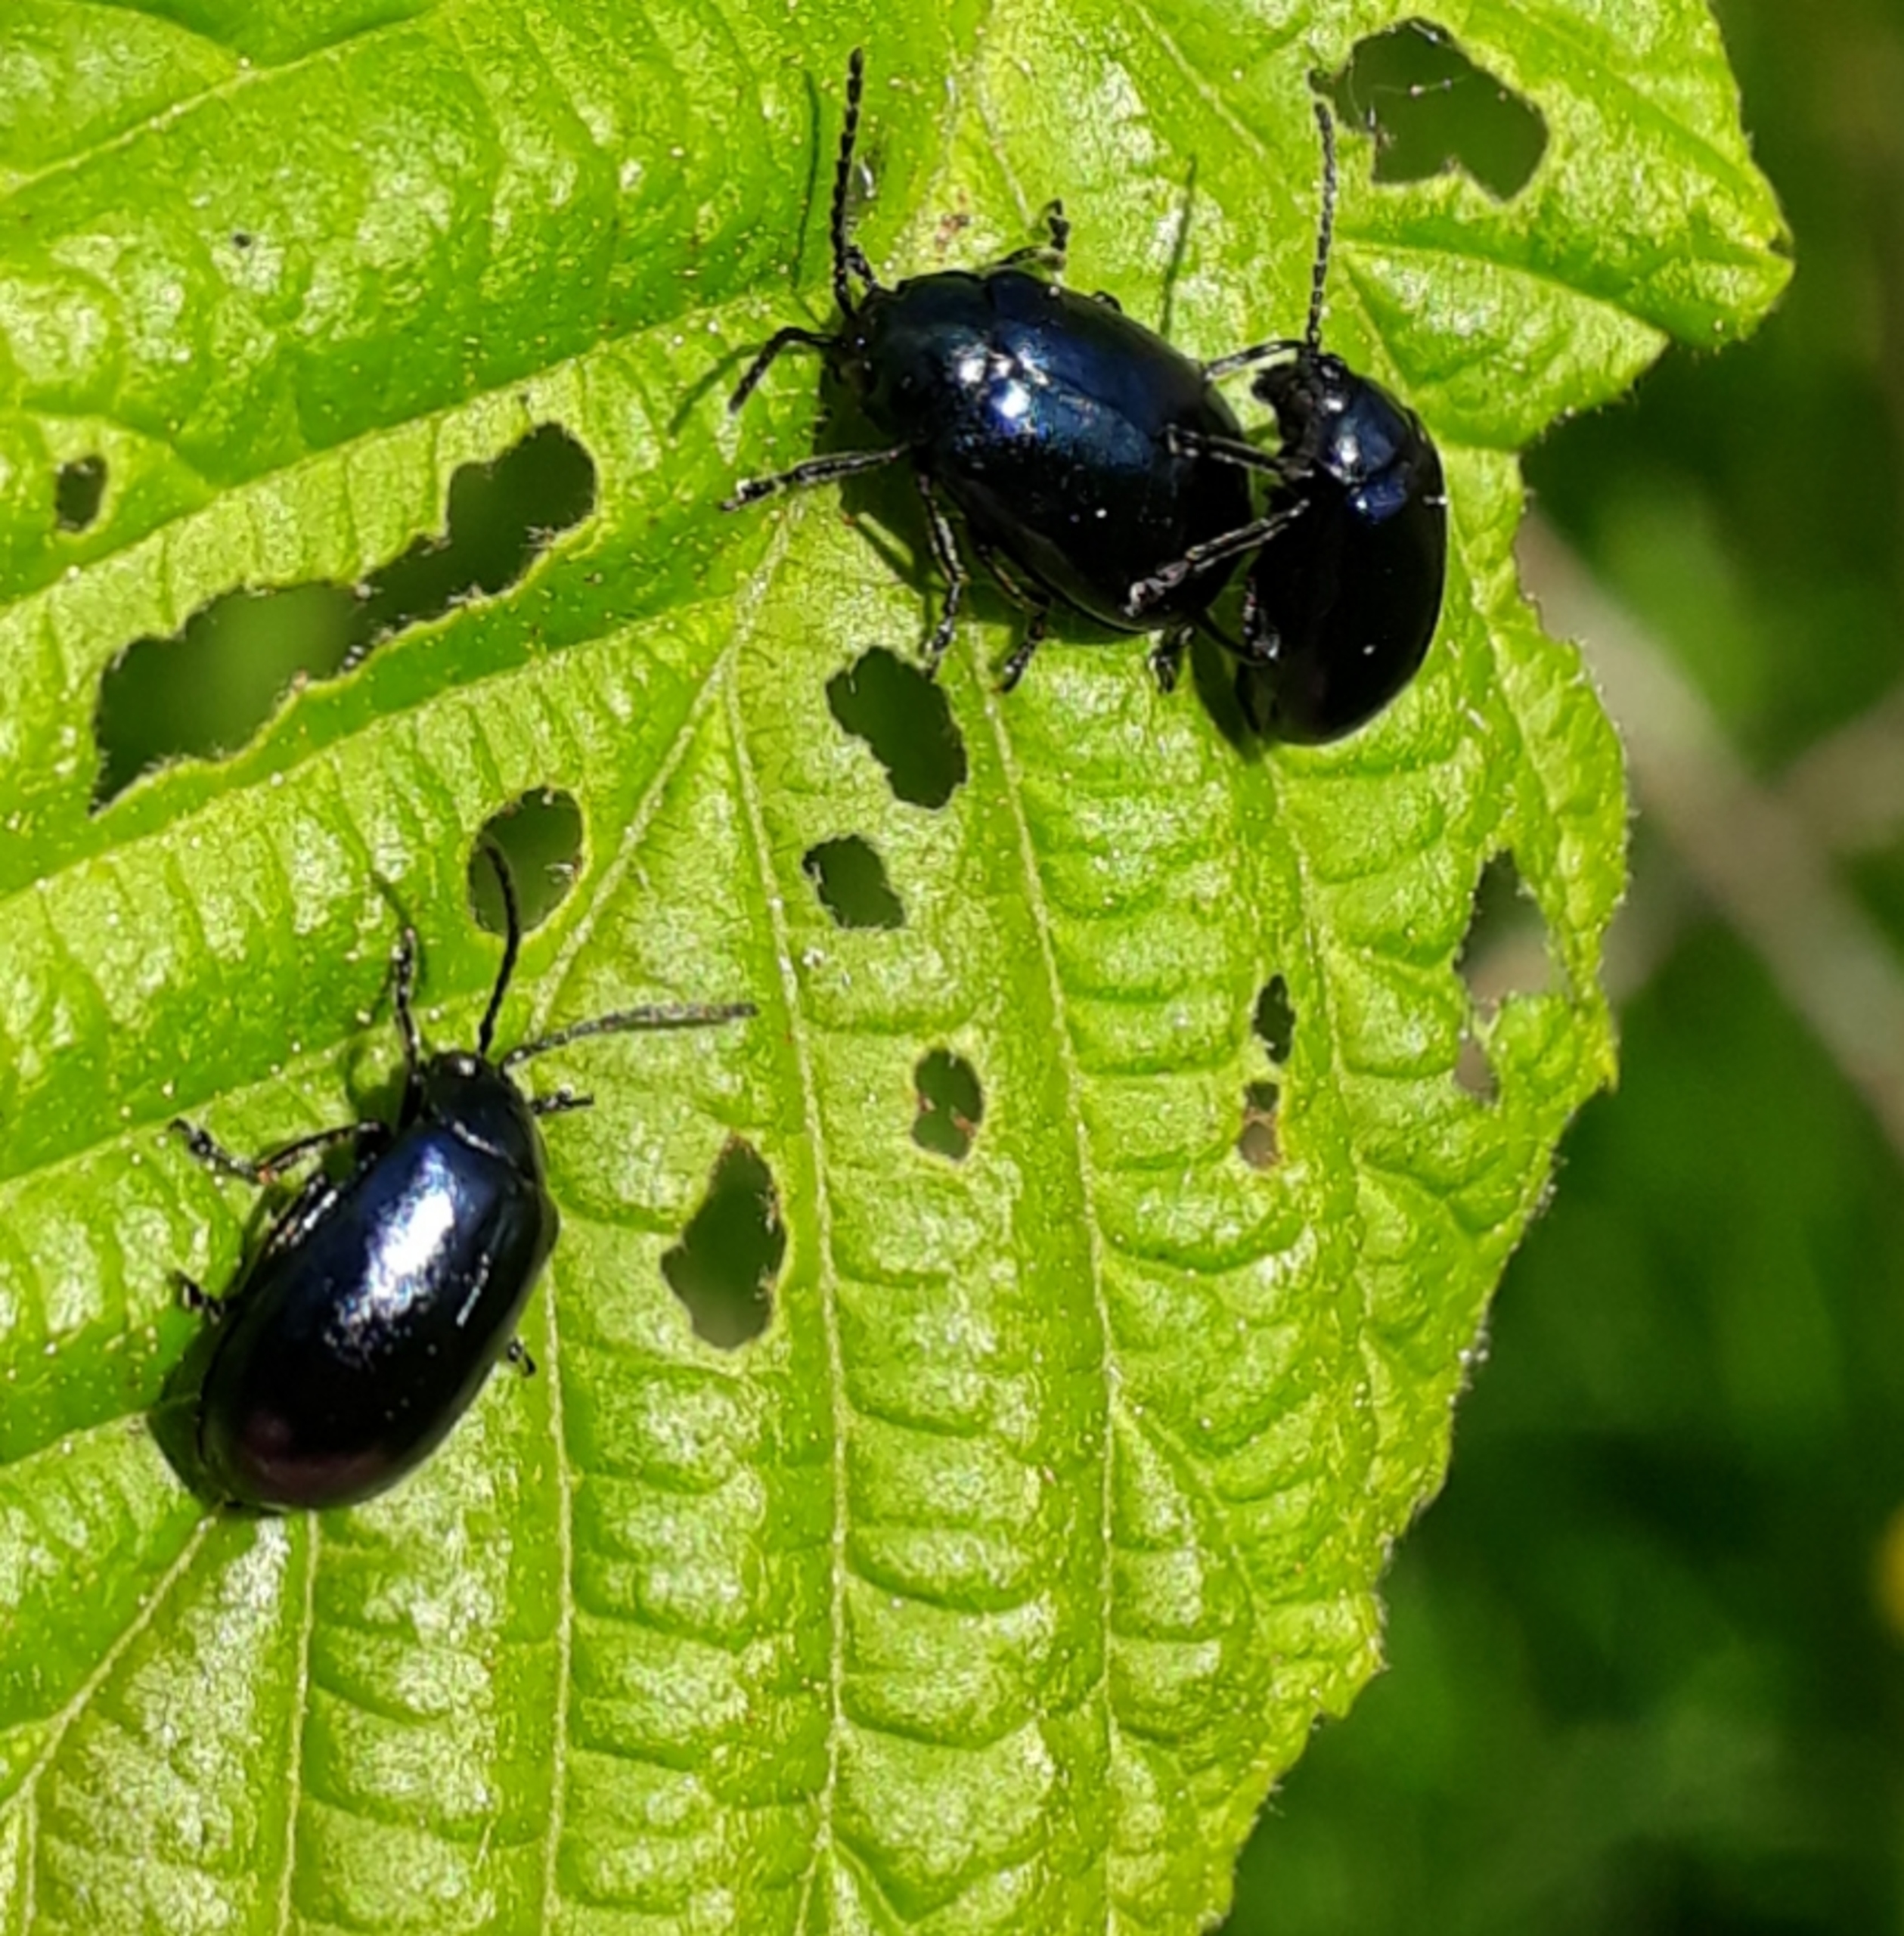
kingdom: Animalia
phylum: Arthropoda
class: Insecta
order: Coleoptera
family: Chrysomelidae
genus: Agelastica
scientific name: Agelastica alni
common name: Ellebladbille
